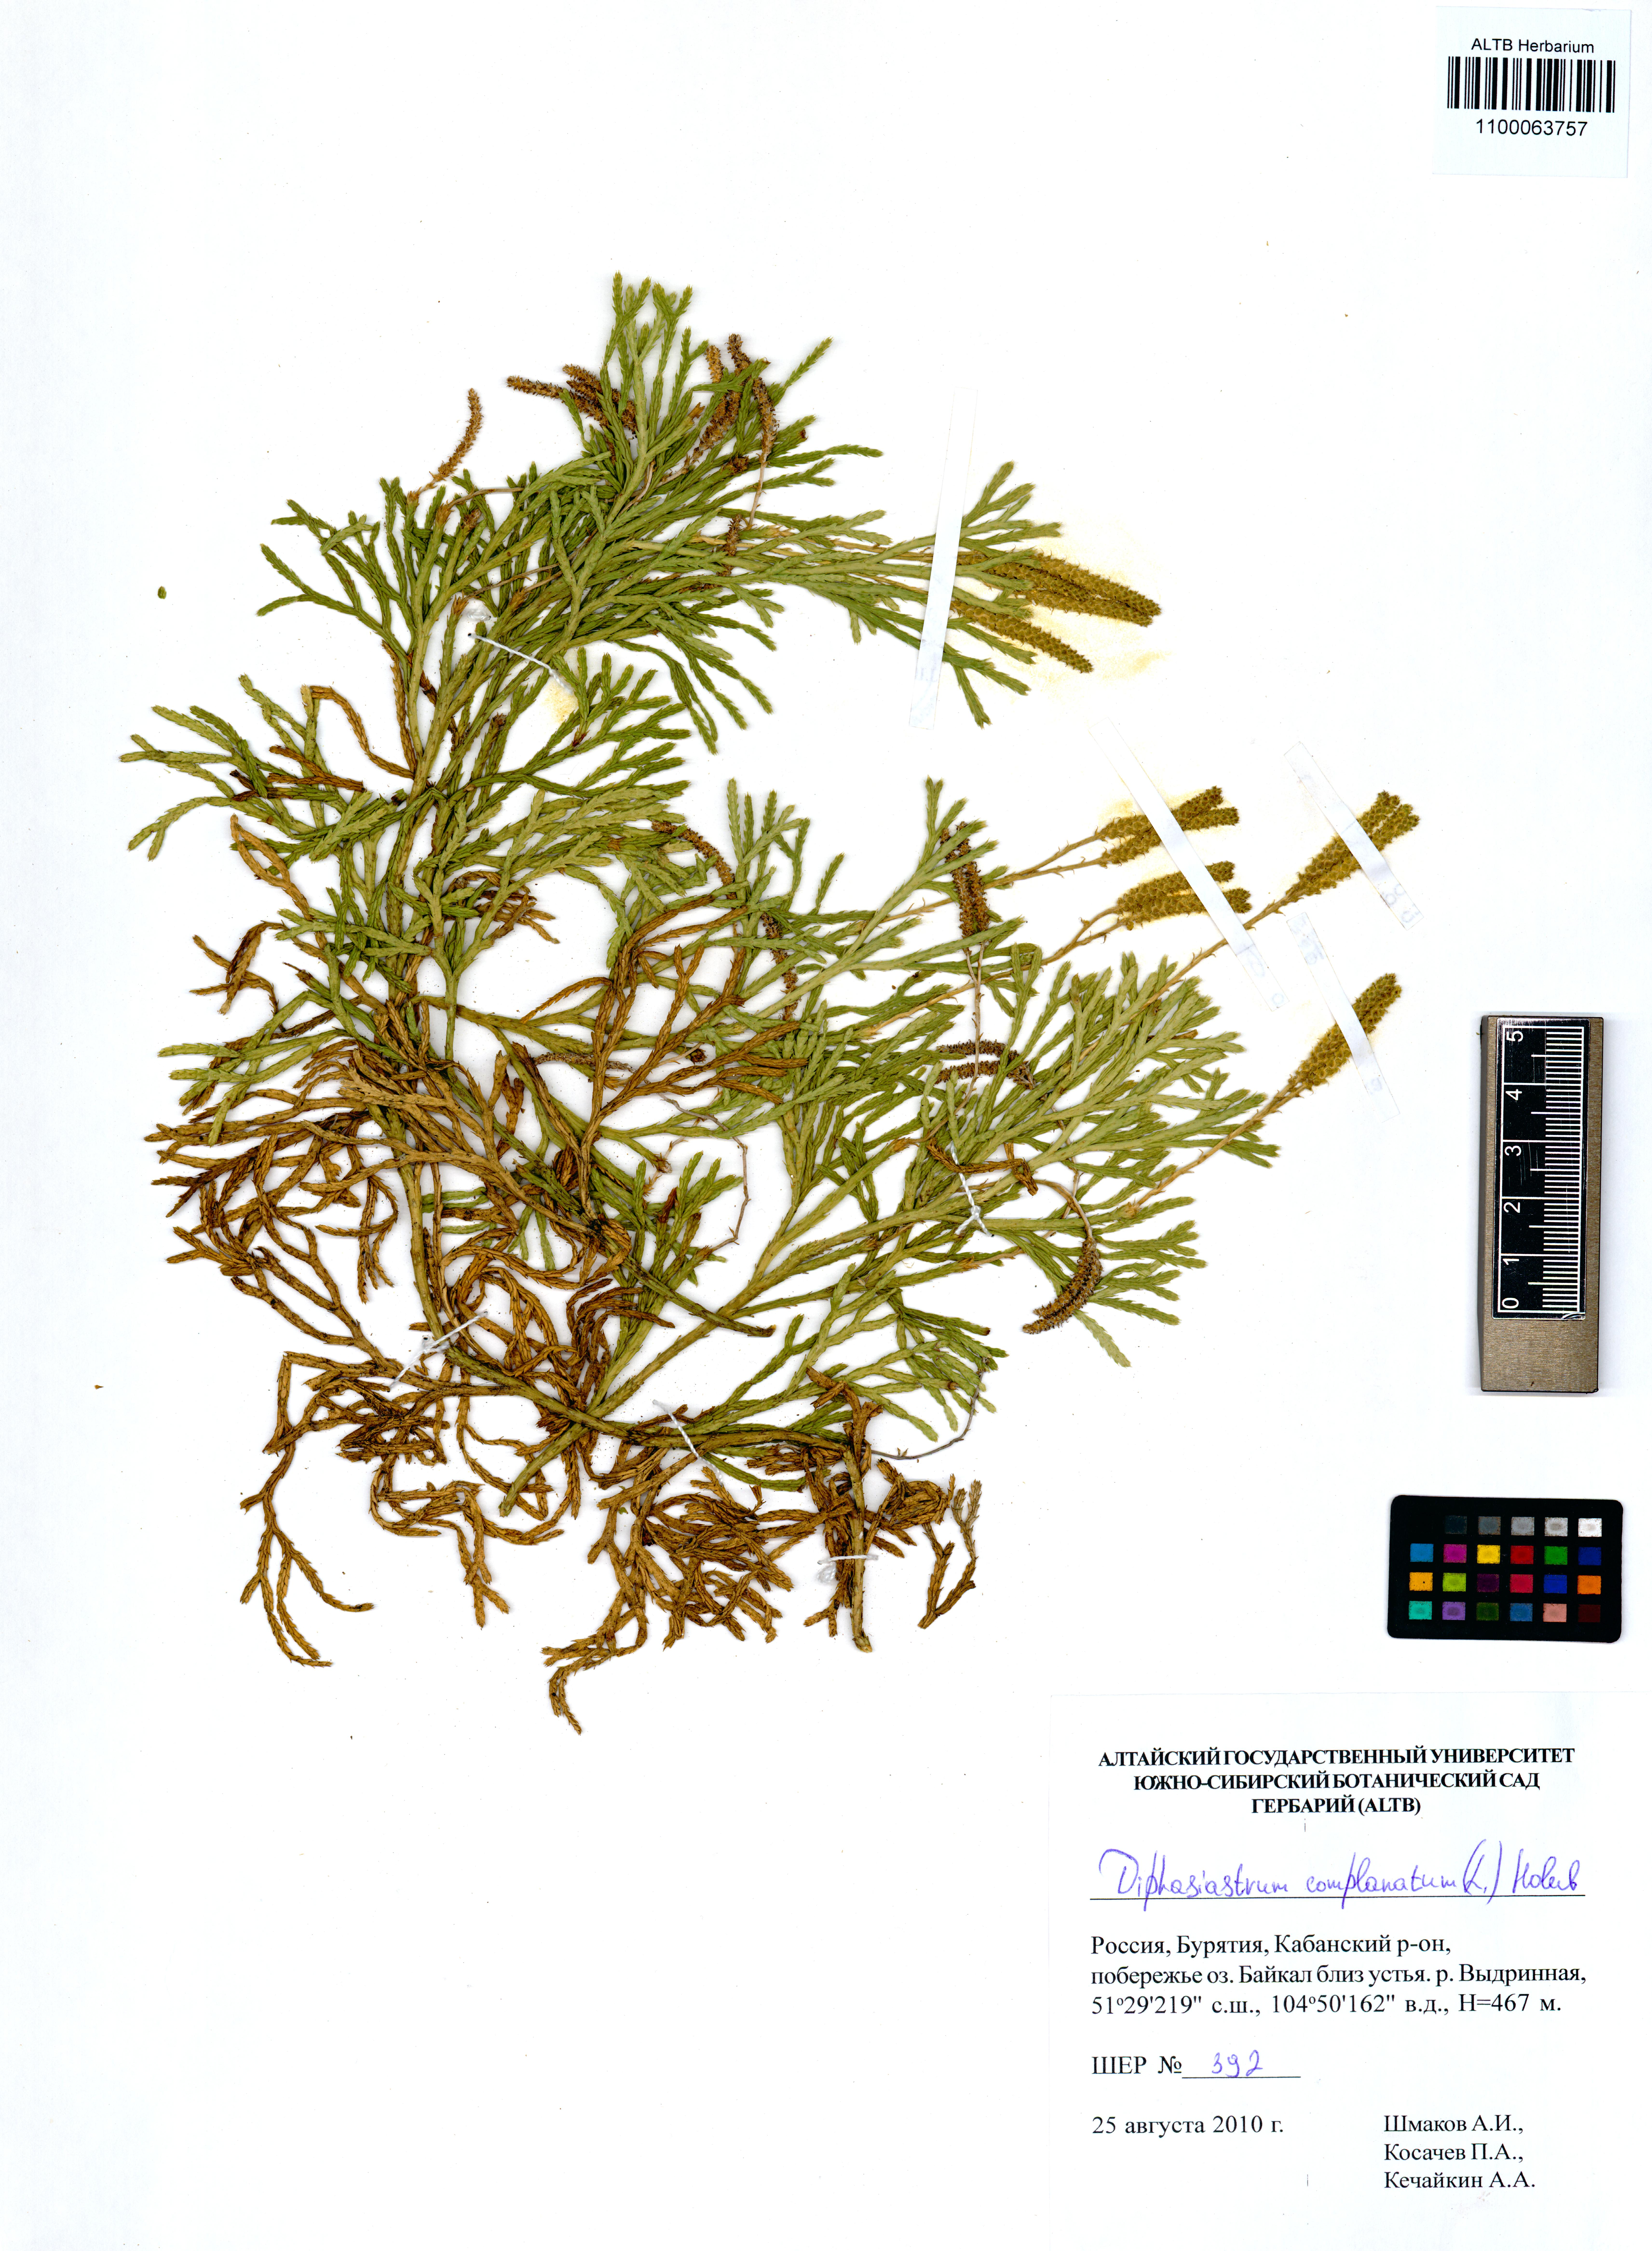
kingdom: Plantae
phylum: Tracheophyta
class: Lycopodiopsida
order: Lycopodiales
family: Lycopodiaceae
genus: Diphasiastrum
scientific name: Diphasiastrum complanatum
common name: Northern running-pine
